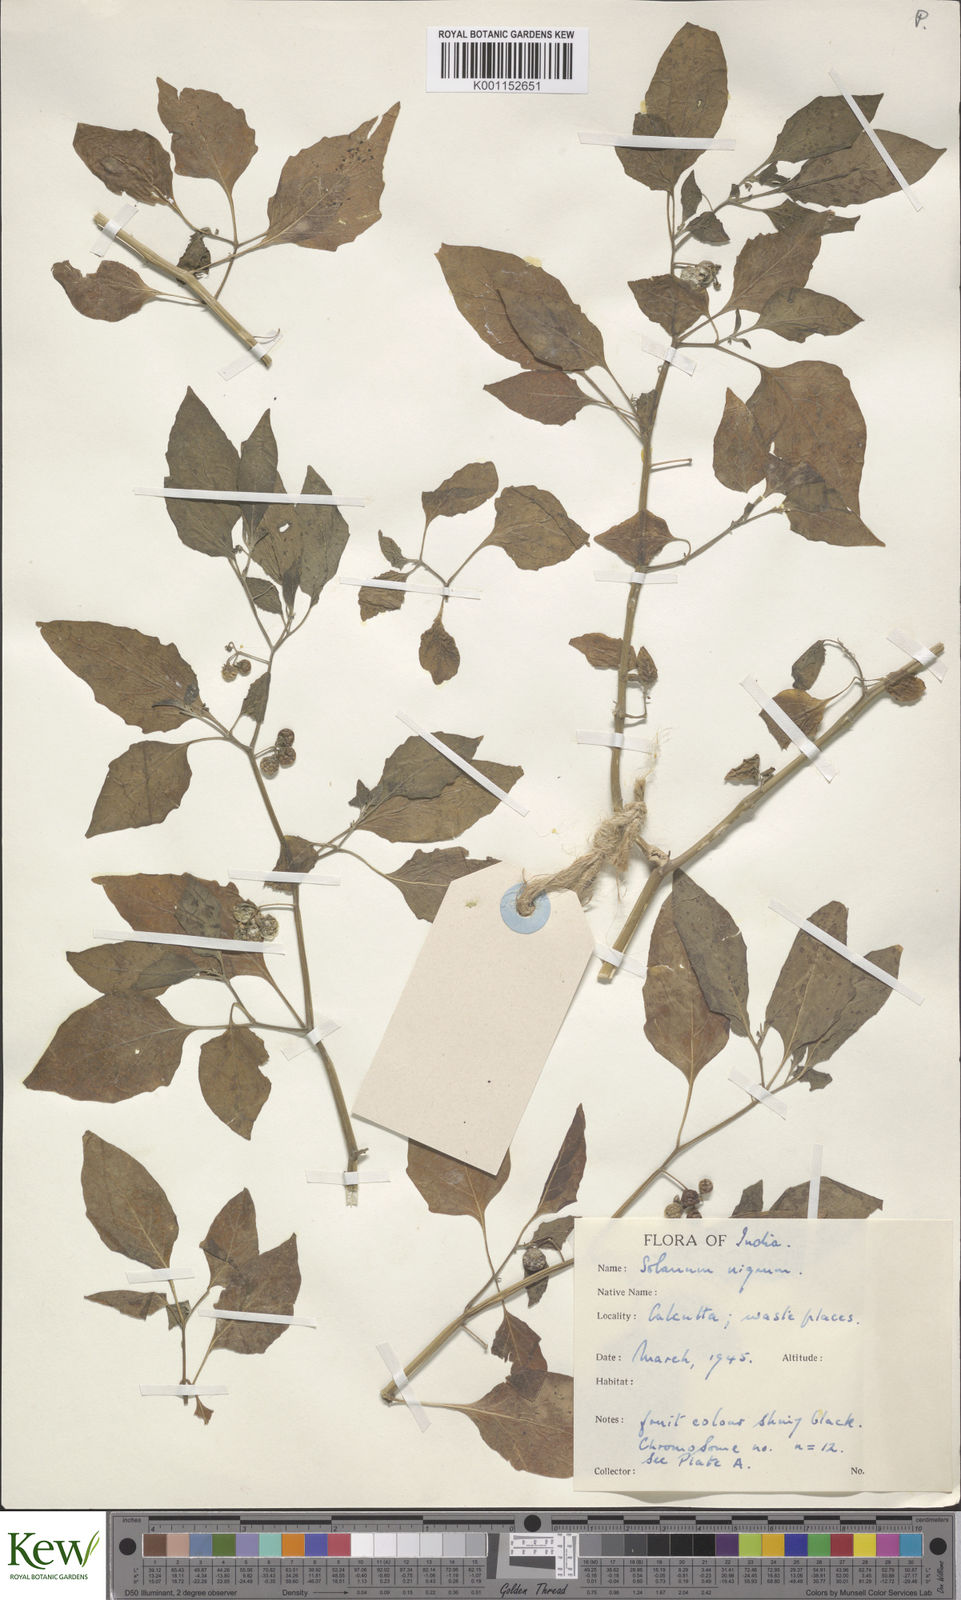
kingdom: Plantae
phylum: Tracheophyta
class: Magnoliopsida
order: Solanales
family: Solanaceae
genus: Solanum
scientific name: Solanum nigrum
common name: Black nightshade
